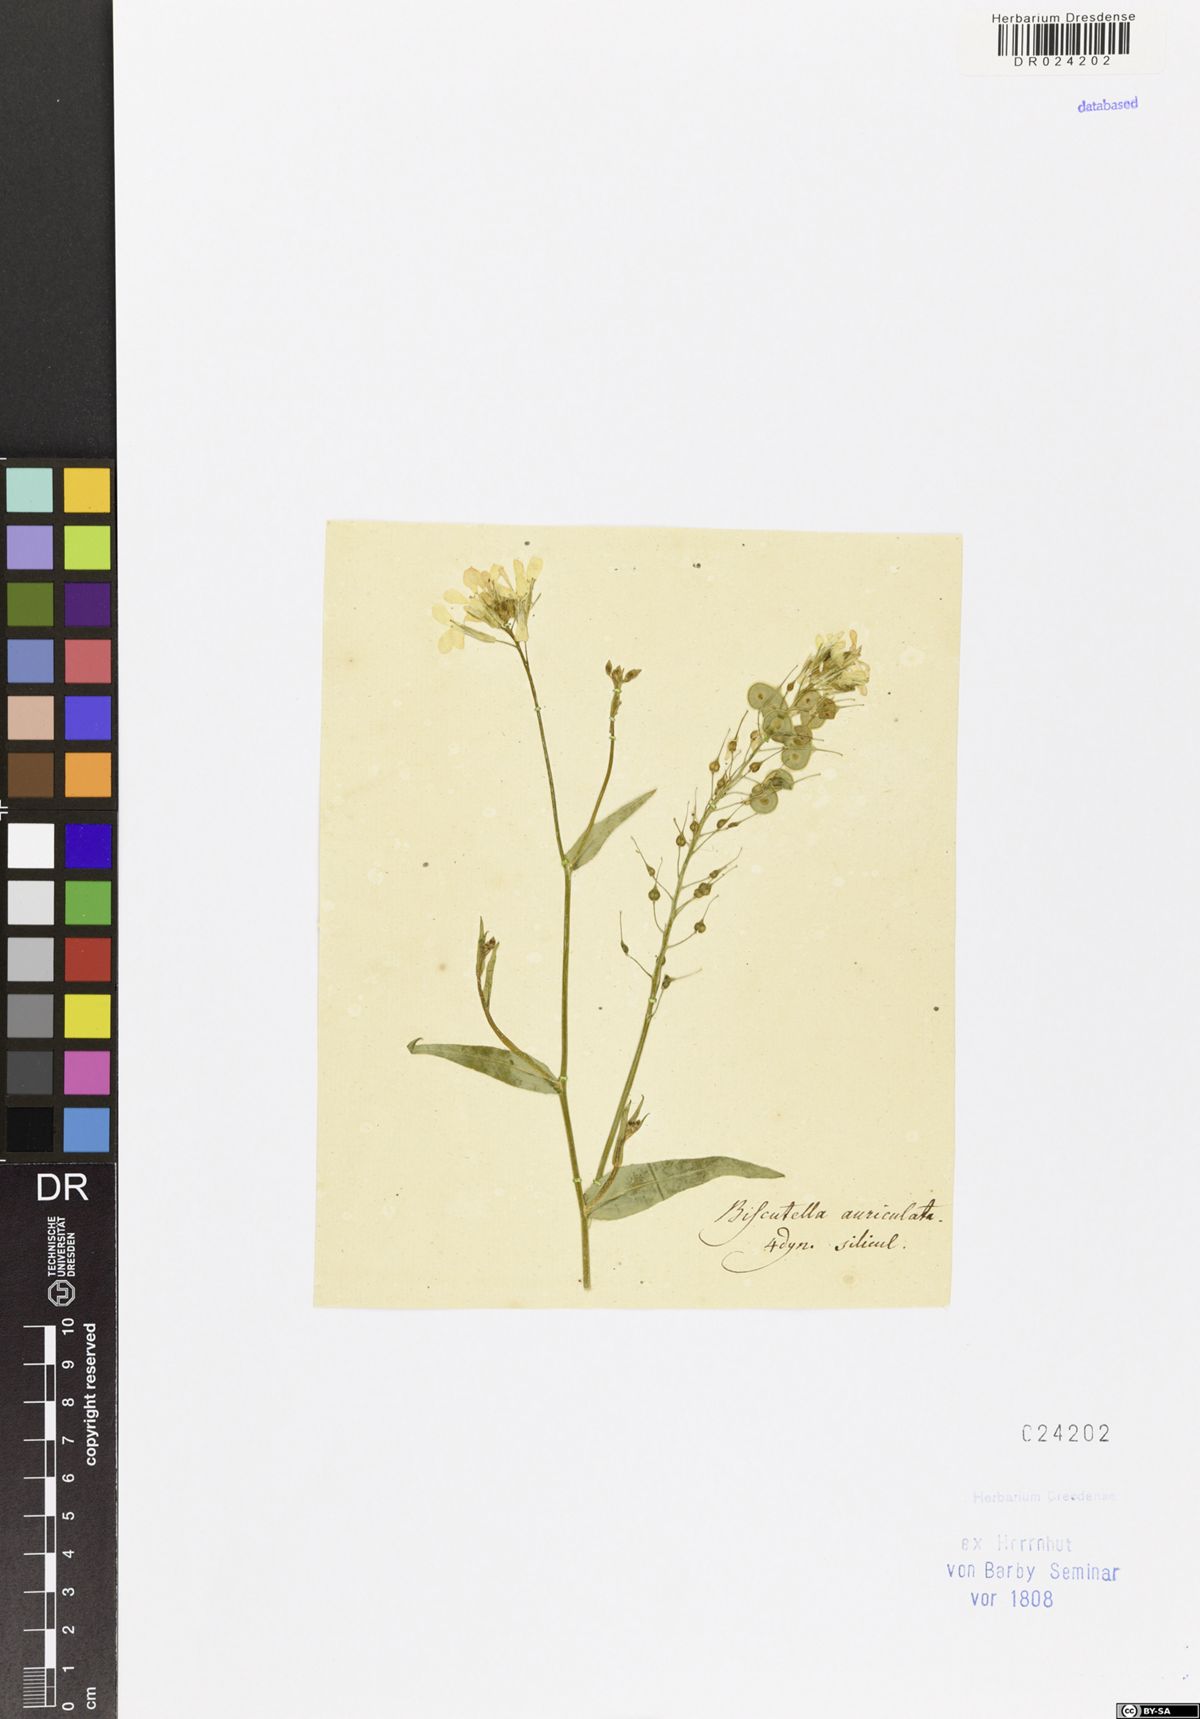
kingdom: Plantae
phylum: Tracheophyta
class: Magnoliopsida
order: Brassicales
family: Brassicaceae
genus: Biscutella
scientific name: Biscutella auriculata
